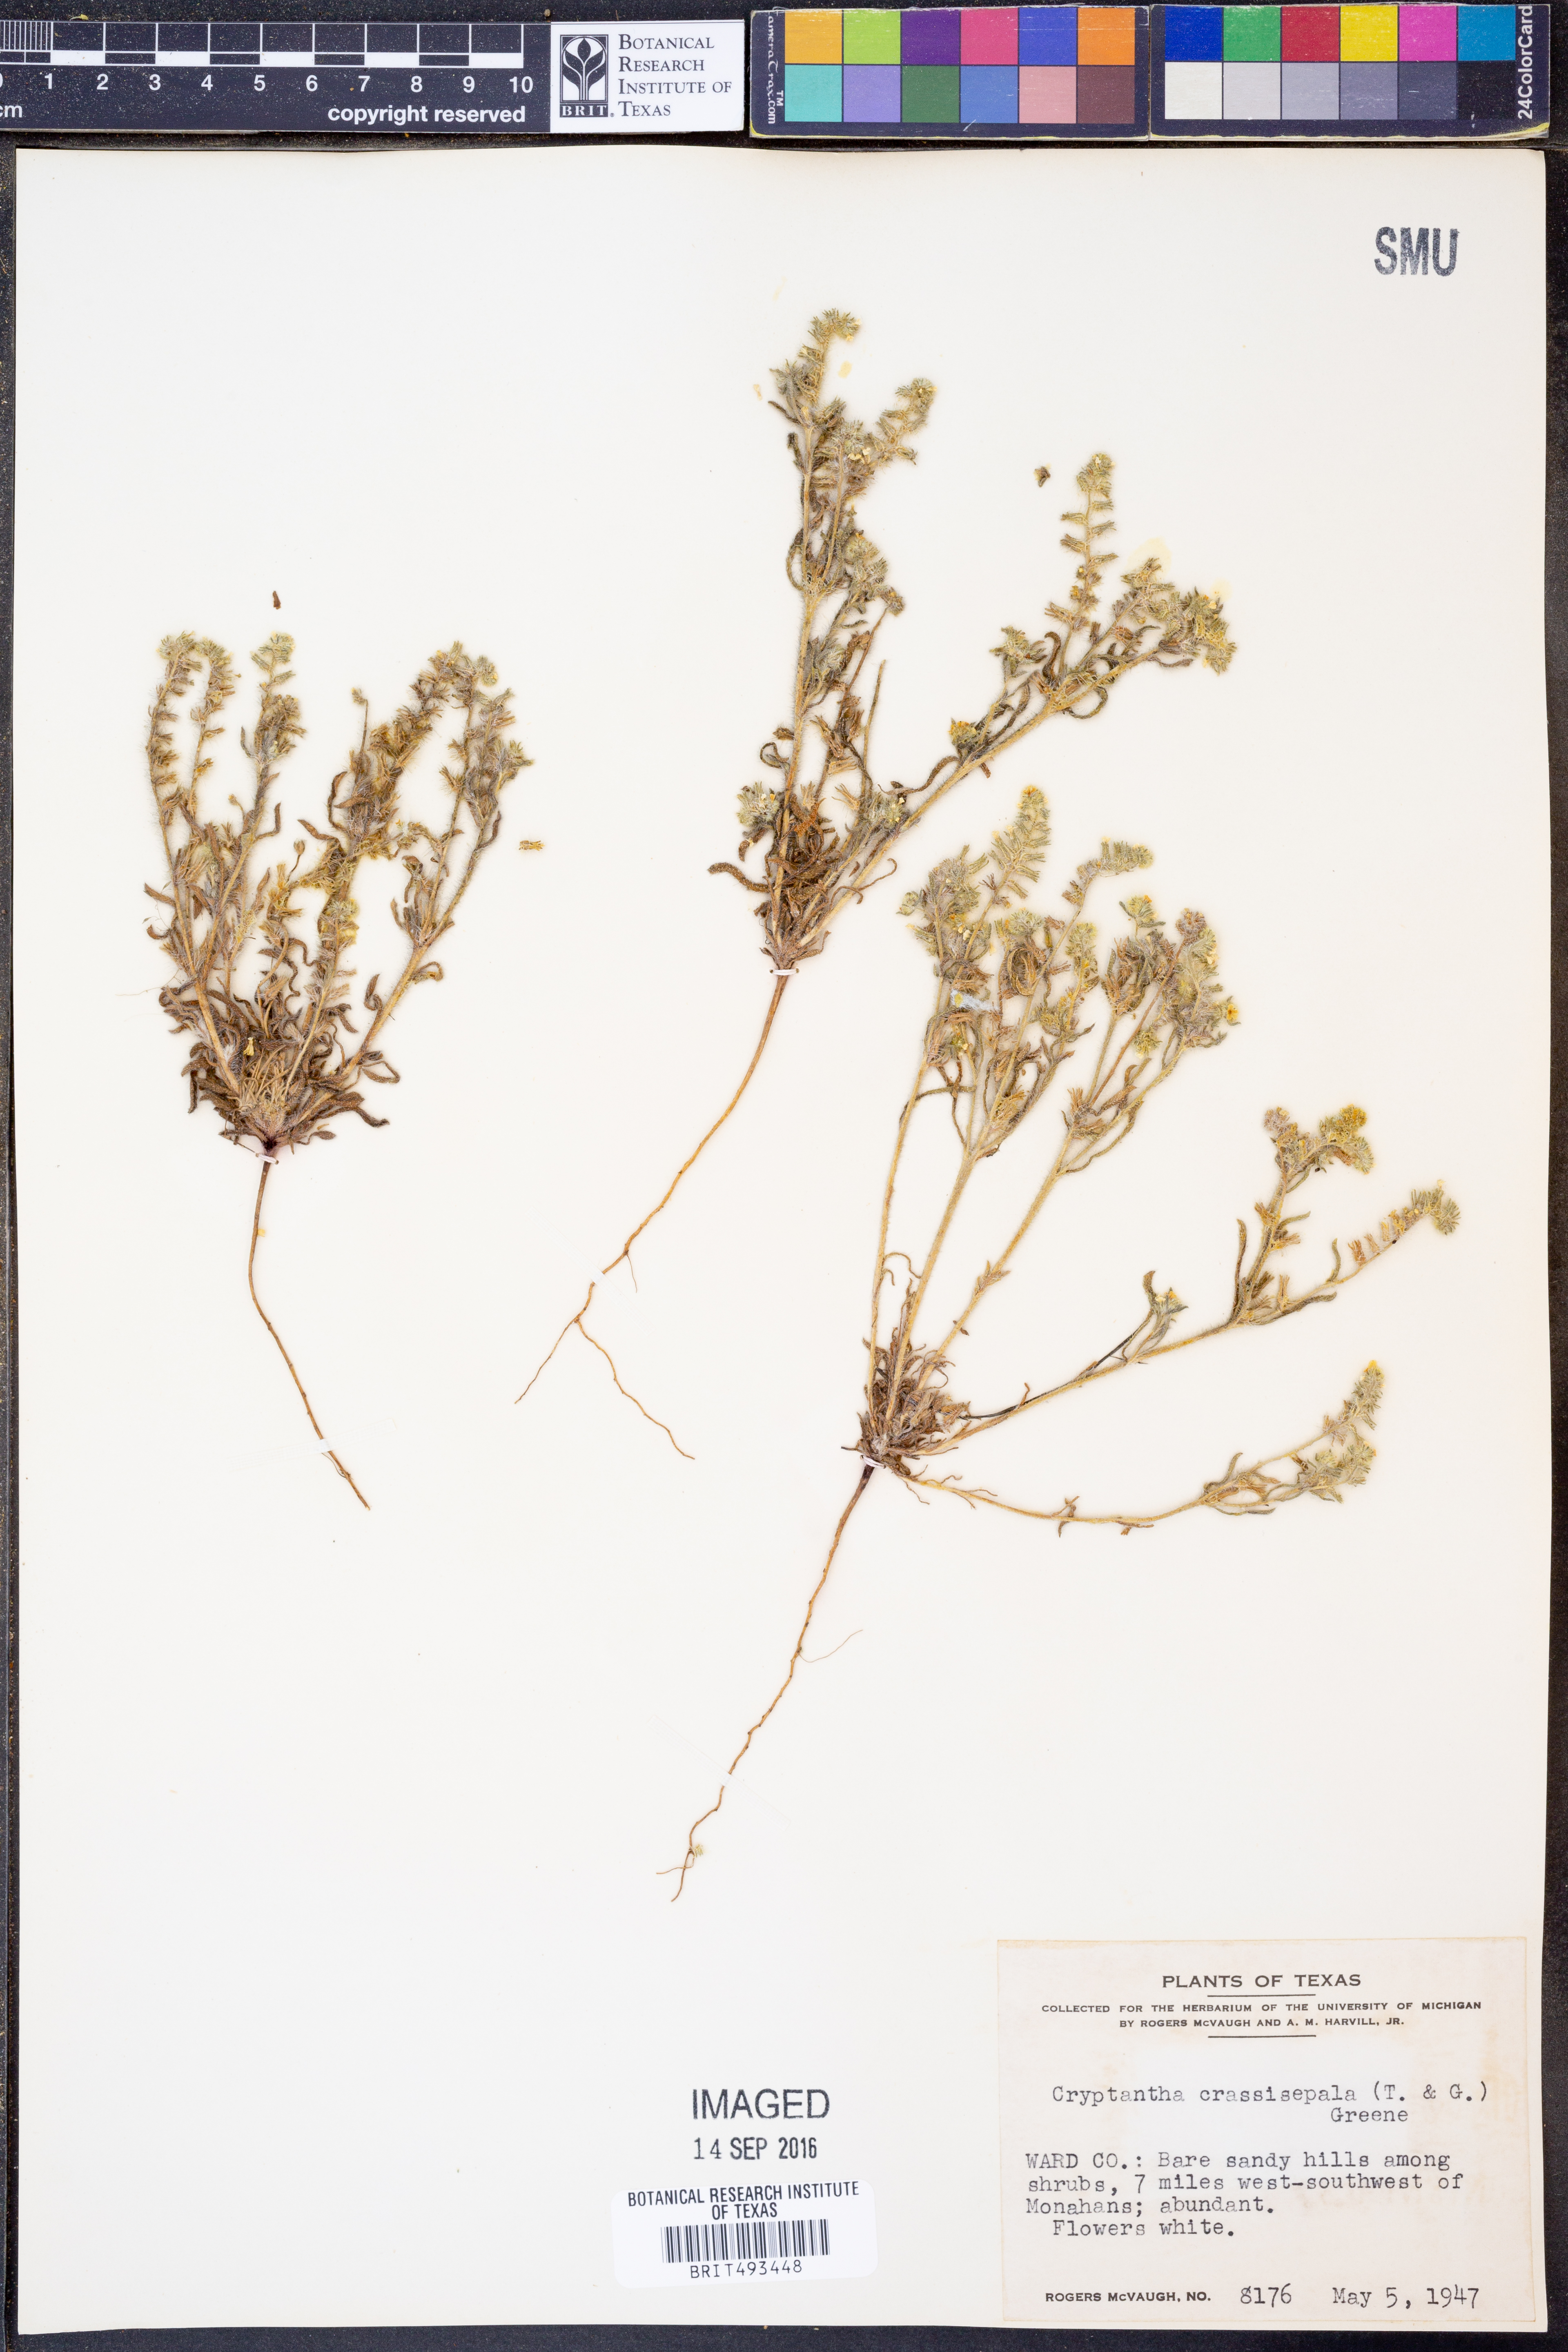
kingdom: Plantae
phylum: Tracheophyta
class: Magnoliopsida
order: Boraginales
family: Boraginaceae
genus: Cryptantha
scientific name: Cryptantha crassisepala
